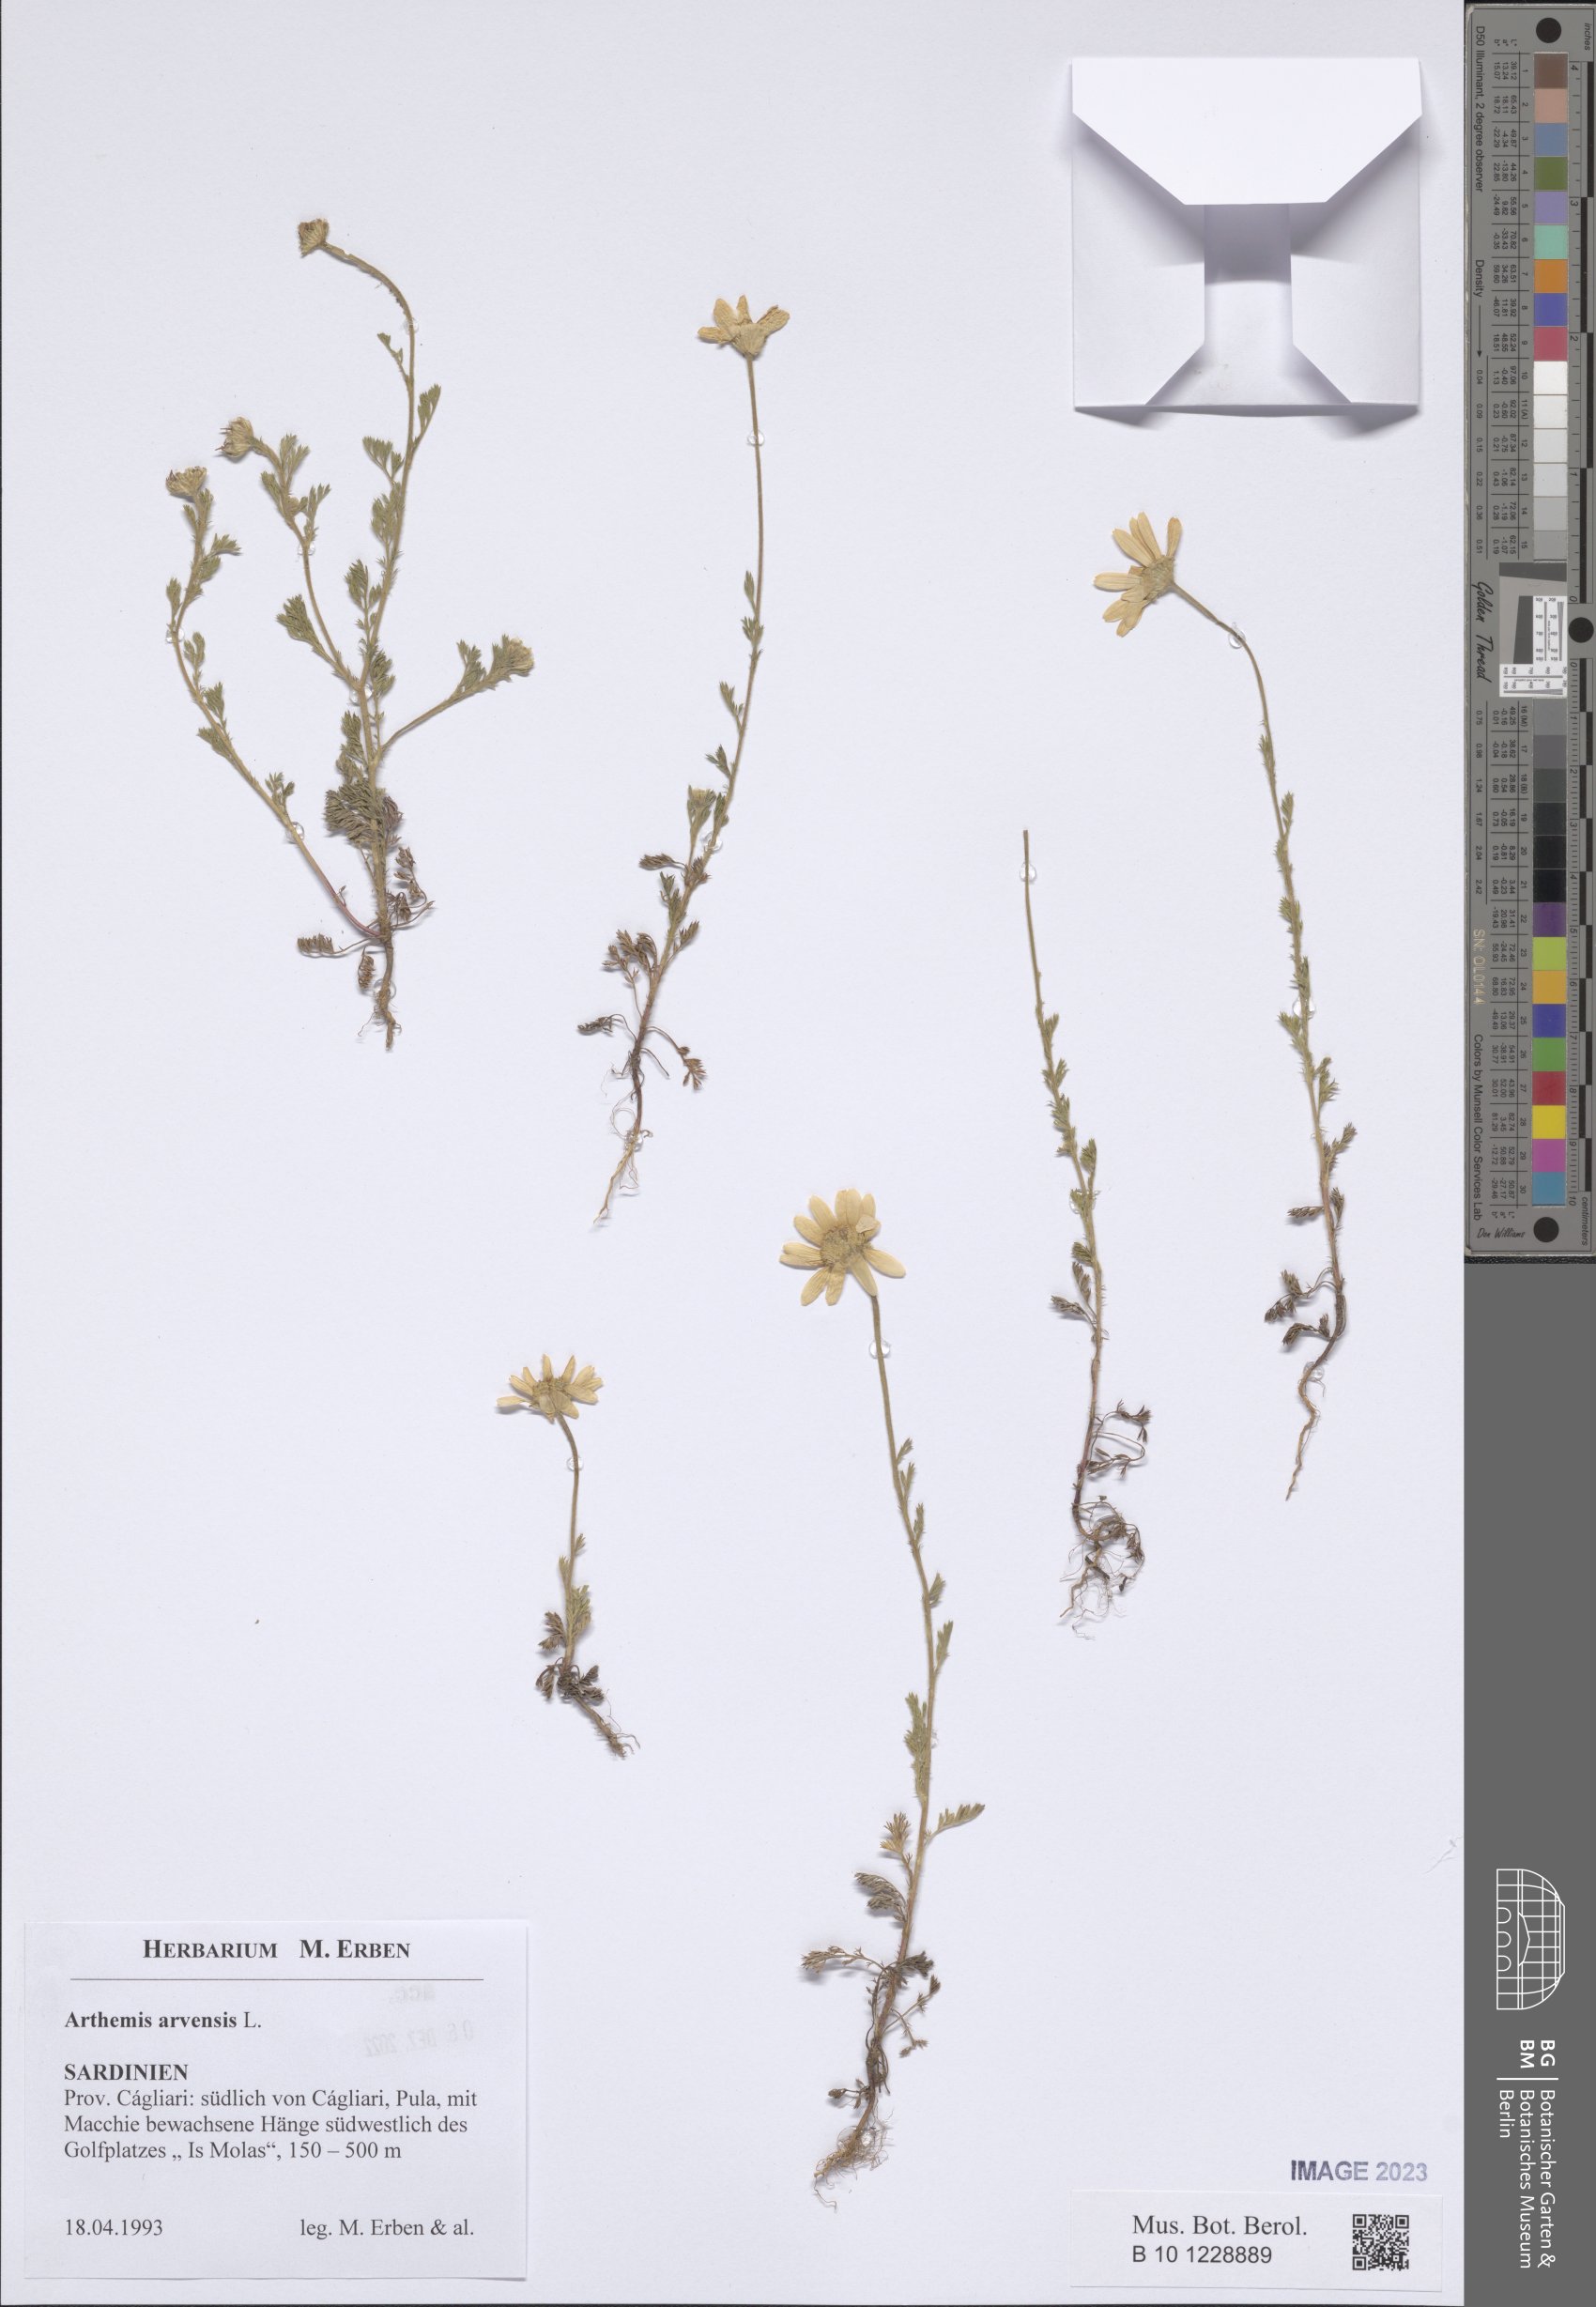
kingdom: Plantae
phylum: Tracheophyta
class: Magnoliopsida
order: Asterales
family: Asteraceae
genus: Anthemis
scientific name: Anthemis arvensis
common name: Corn chamomile
